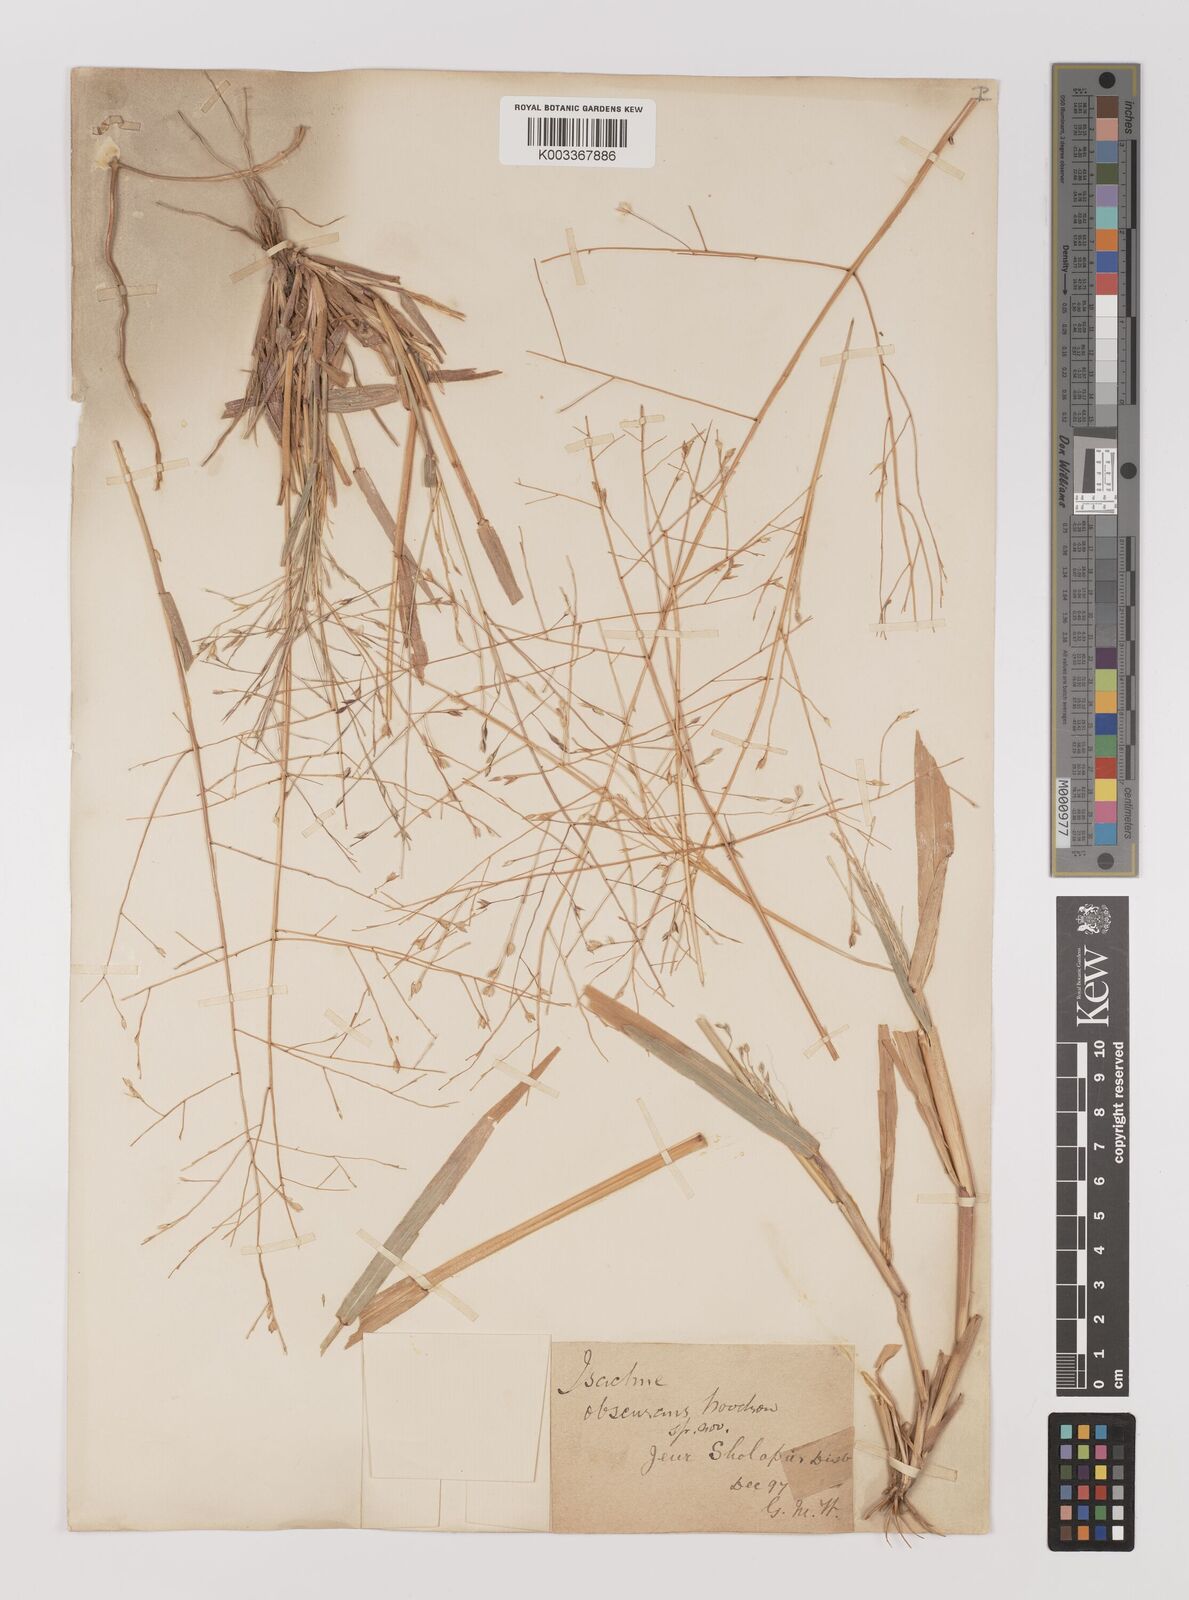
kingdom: Plantae
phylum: Tracheophyta
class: Liliopsida
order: Poales
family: Poaceae
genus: Panicum
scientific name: Panicum hippothrix
